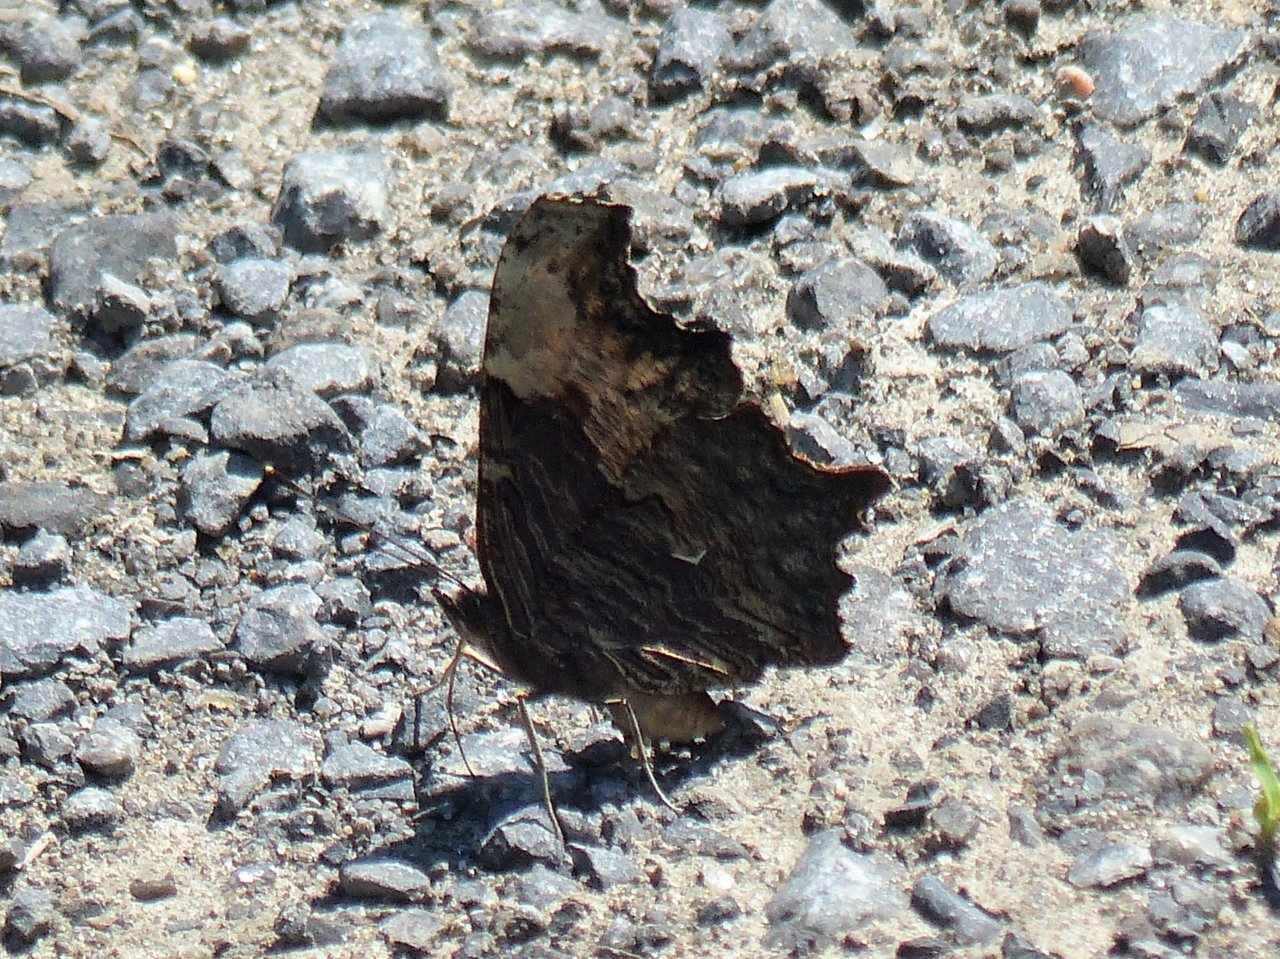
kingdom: Animalia
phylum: Arthropoda
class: Insecta
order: Lepidoptera
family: Nymphalidae
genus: Polygonia
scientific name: Polygonia progne
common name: Gray Comma
